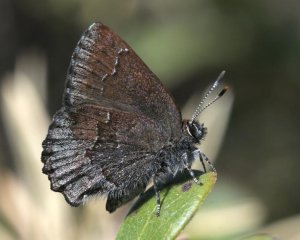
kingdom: Animalia
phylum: Arthropoda
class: Insecta
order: Lepidoptera
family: Lycaenidae
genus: Callophrys
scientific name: Callophrys polios
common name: Hoary Elfin
